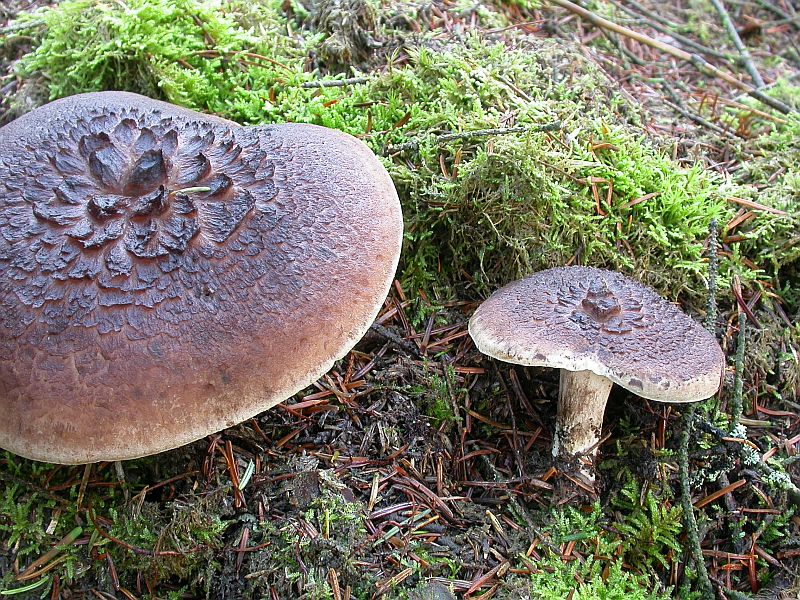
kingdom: Fungi
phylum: Basidiomycota
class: Agaricomycetes
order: Thelephorales
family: Bankeraceae
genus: Sarcodon
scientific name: Sarcodon squamosus
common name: småskællet kødpigsvamp
